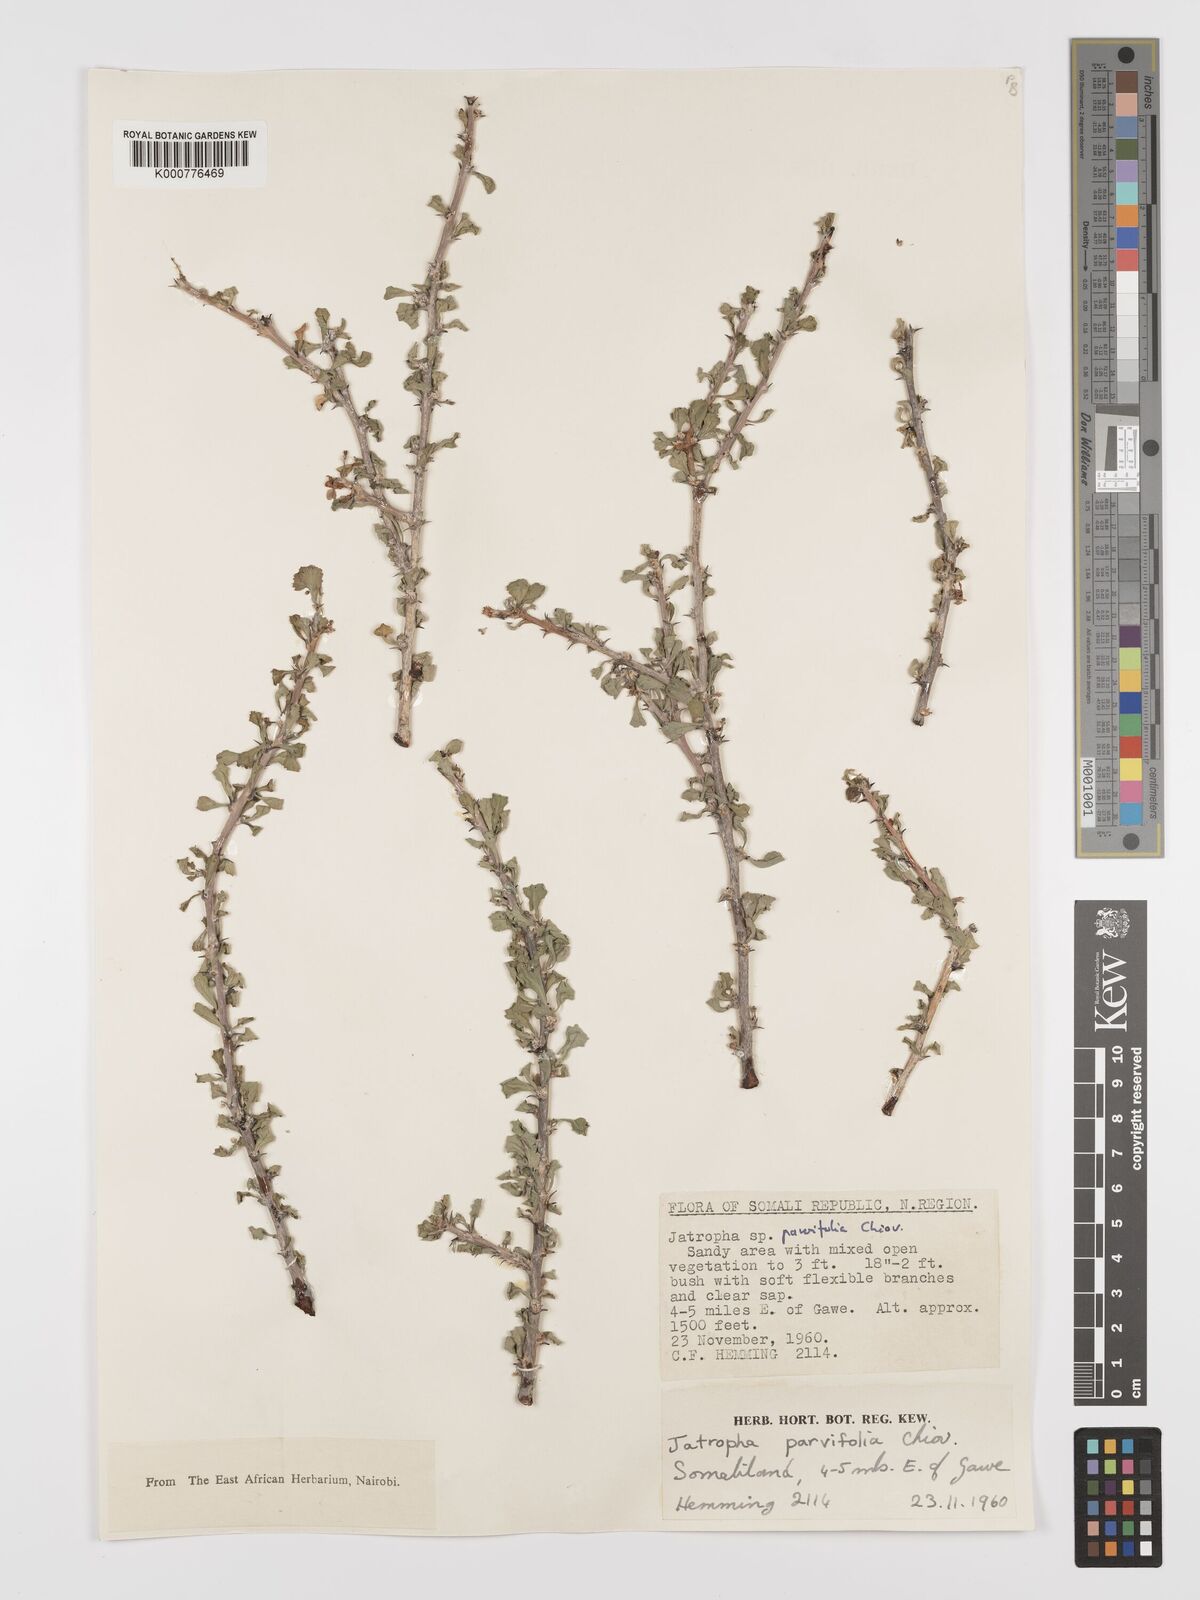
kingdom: Plantae
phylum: Tracheophyta
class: Magnoliopsida
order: Malpighiales
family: Euphorbiaceae
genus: Jatropha
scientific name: Jatropha rivae
